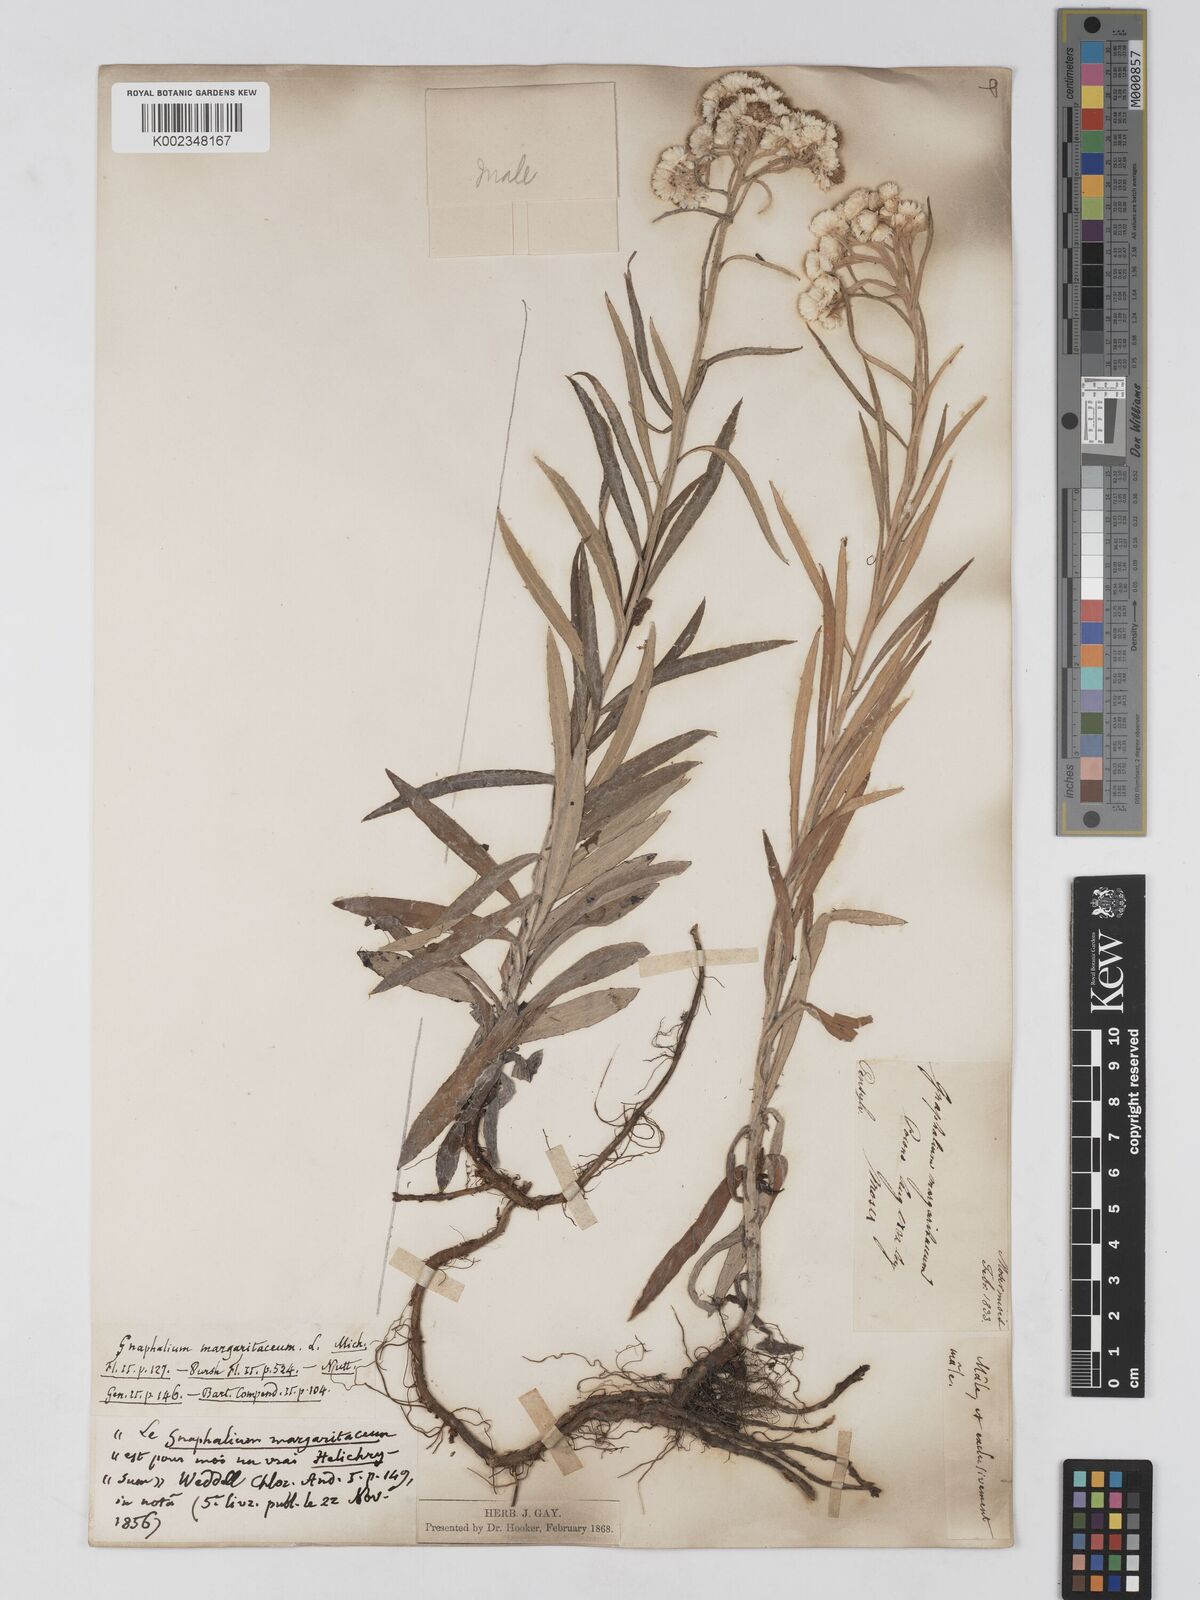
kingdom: Plantae
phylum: Tracheophyta
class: Magnoliopsida
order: Asterales
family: Asteraceae
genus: Anaphalis
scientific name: Anaphalis margaritacea
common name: Pearly everlasting
